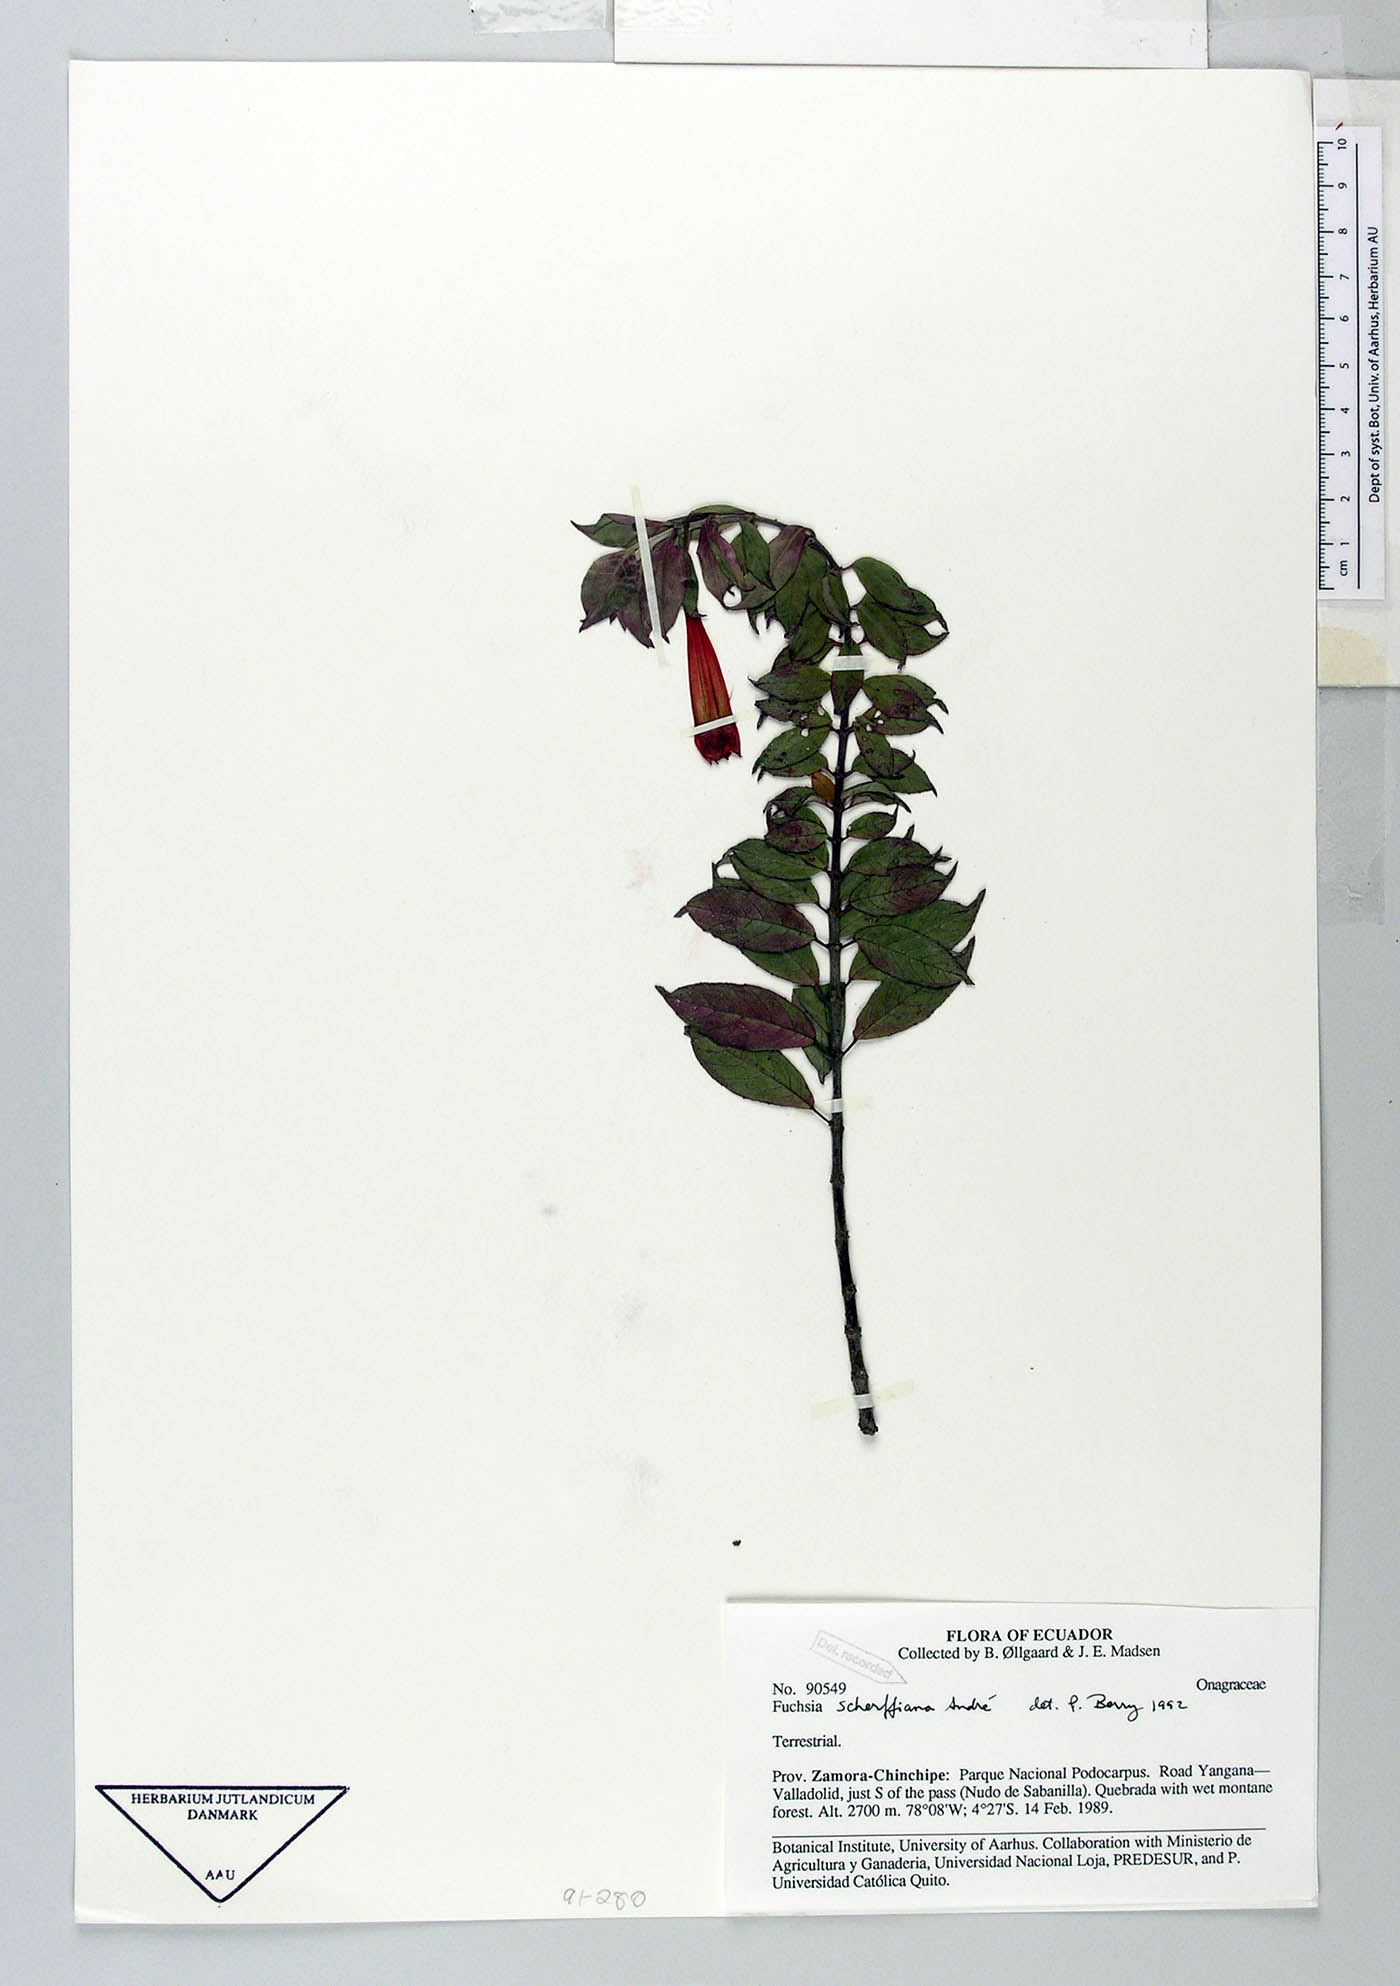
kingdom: Plantae
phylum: Tracheophyta
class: Magnoliopsida
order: Myrtales
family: Onagraceae
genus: Fuchsia
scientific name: Fuchsia scherffiana
